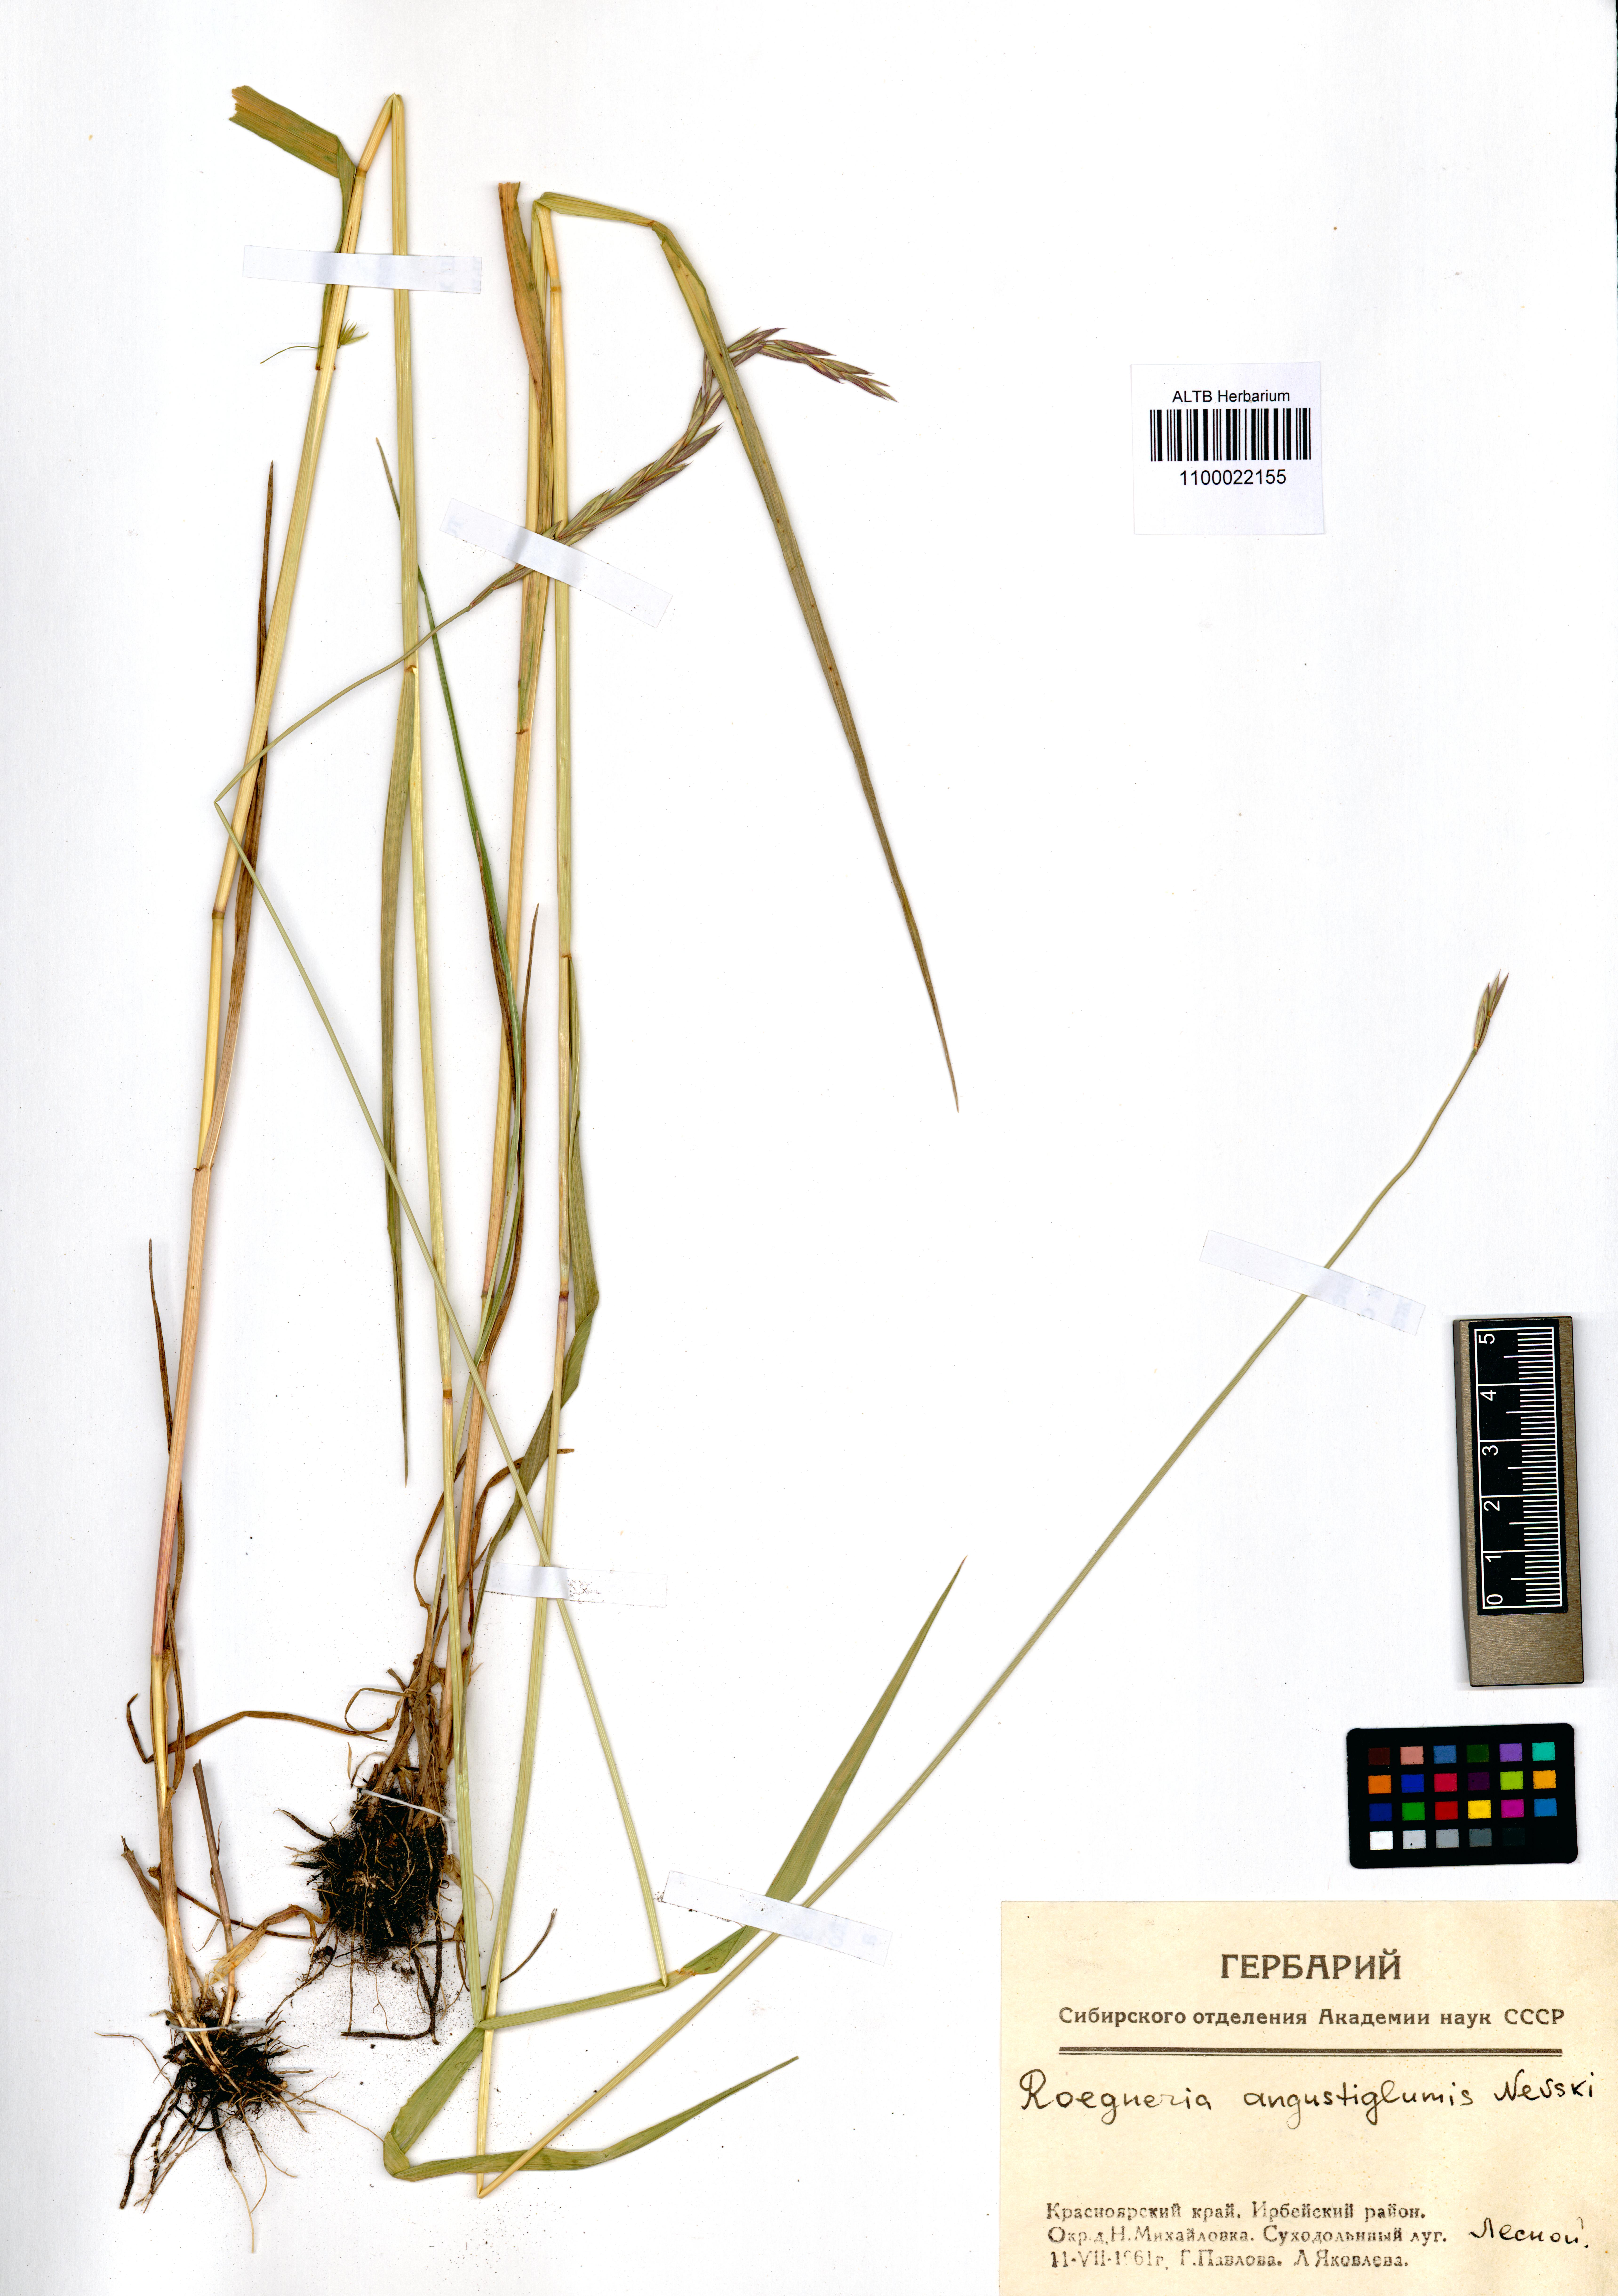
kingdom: Plantae
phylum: Tracheophyta
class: Liliopsida
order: Poales
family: Poaceae
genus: Elymus
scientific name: Elymus mutabilis
